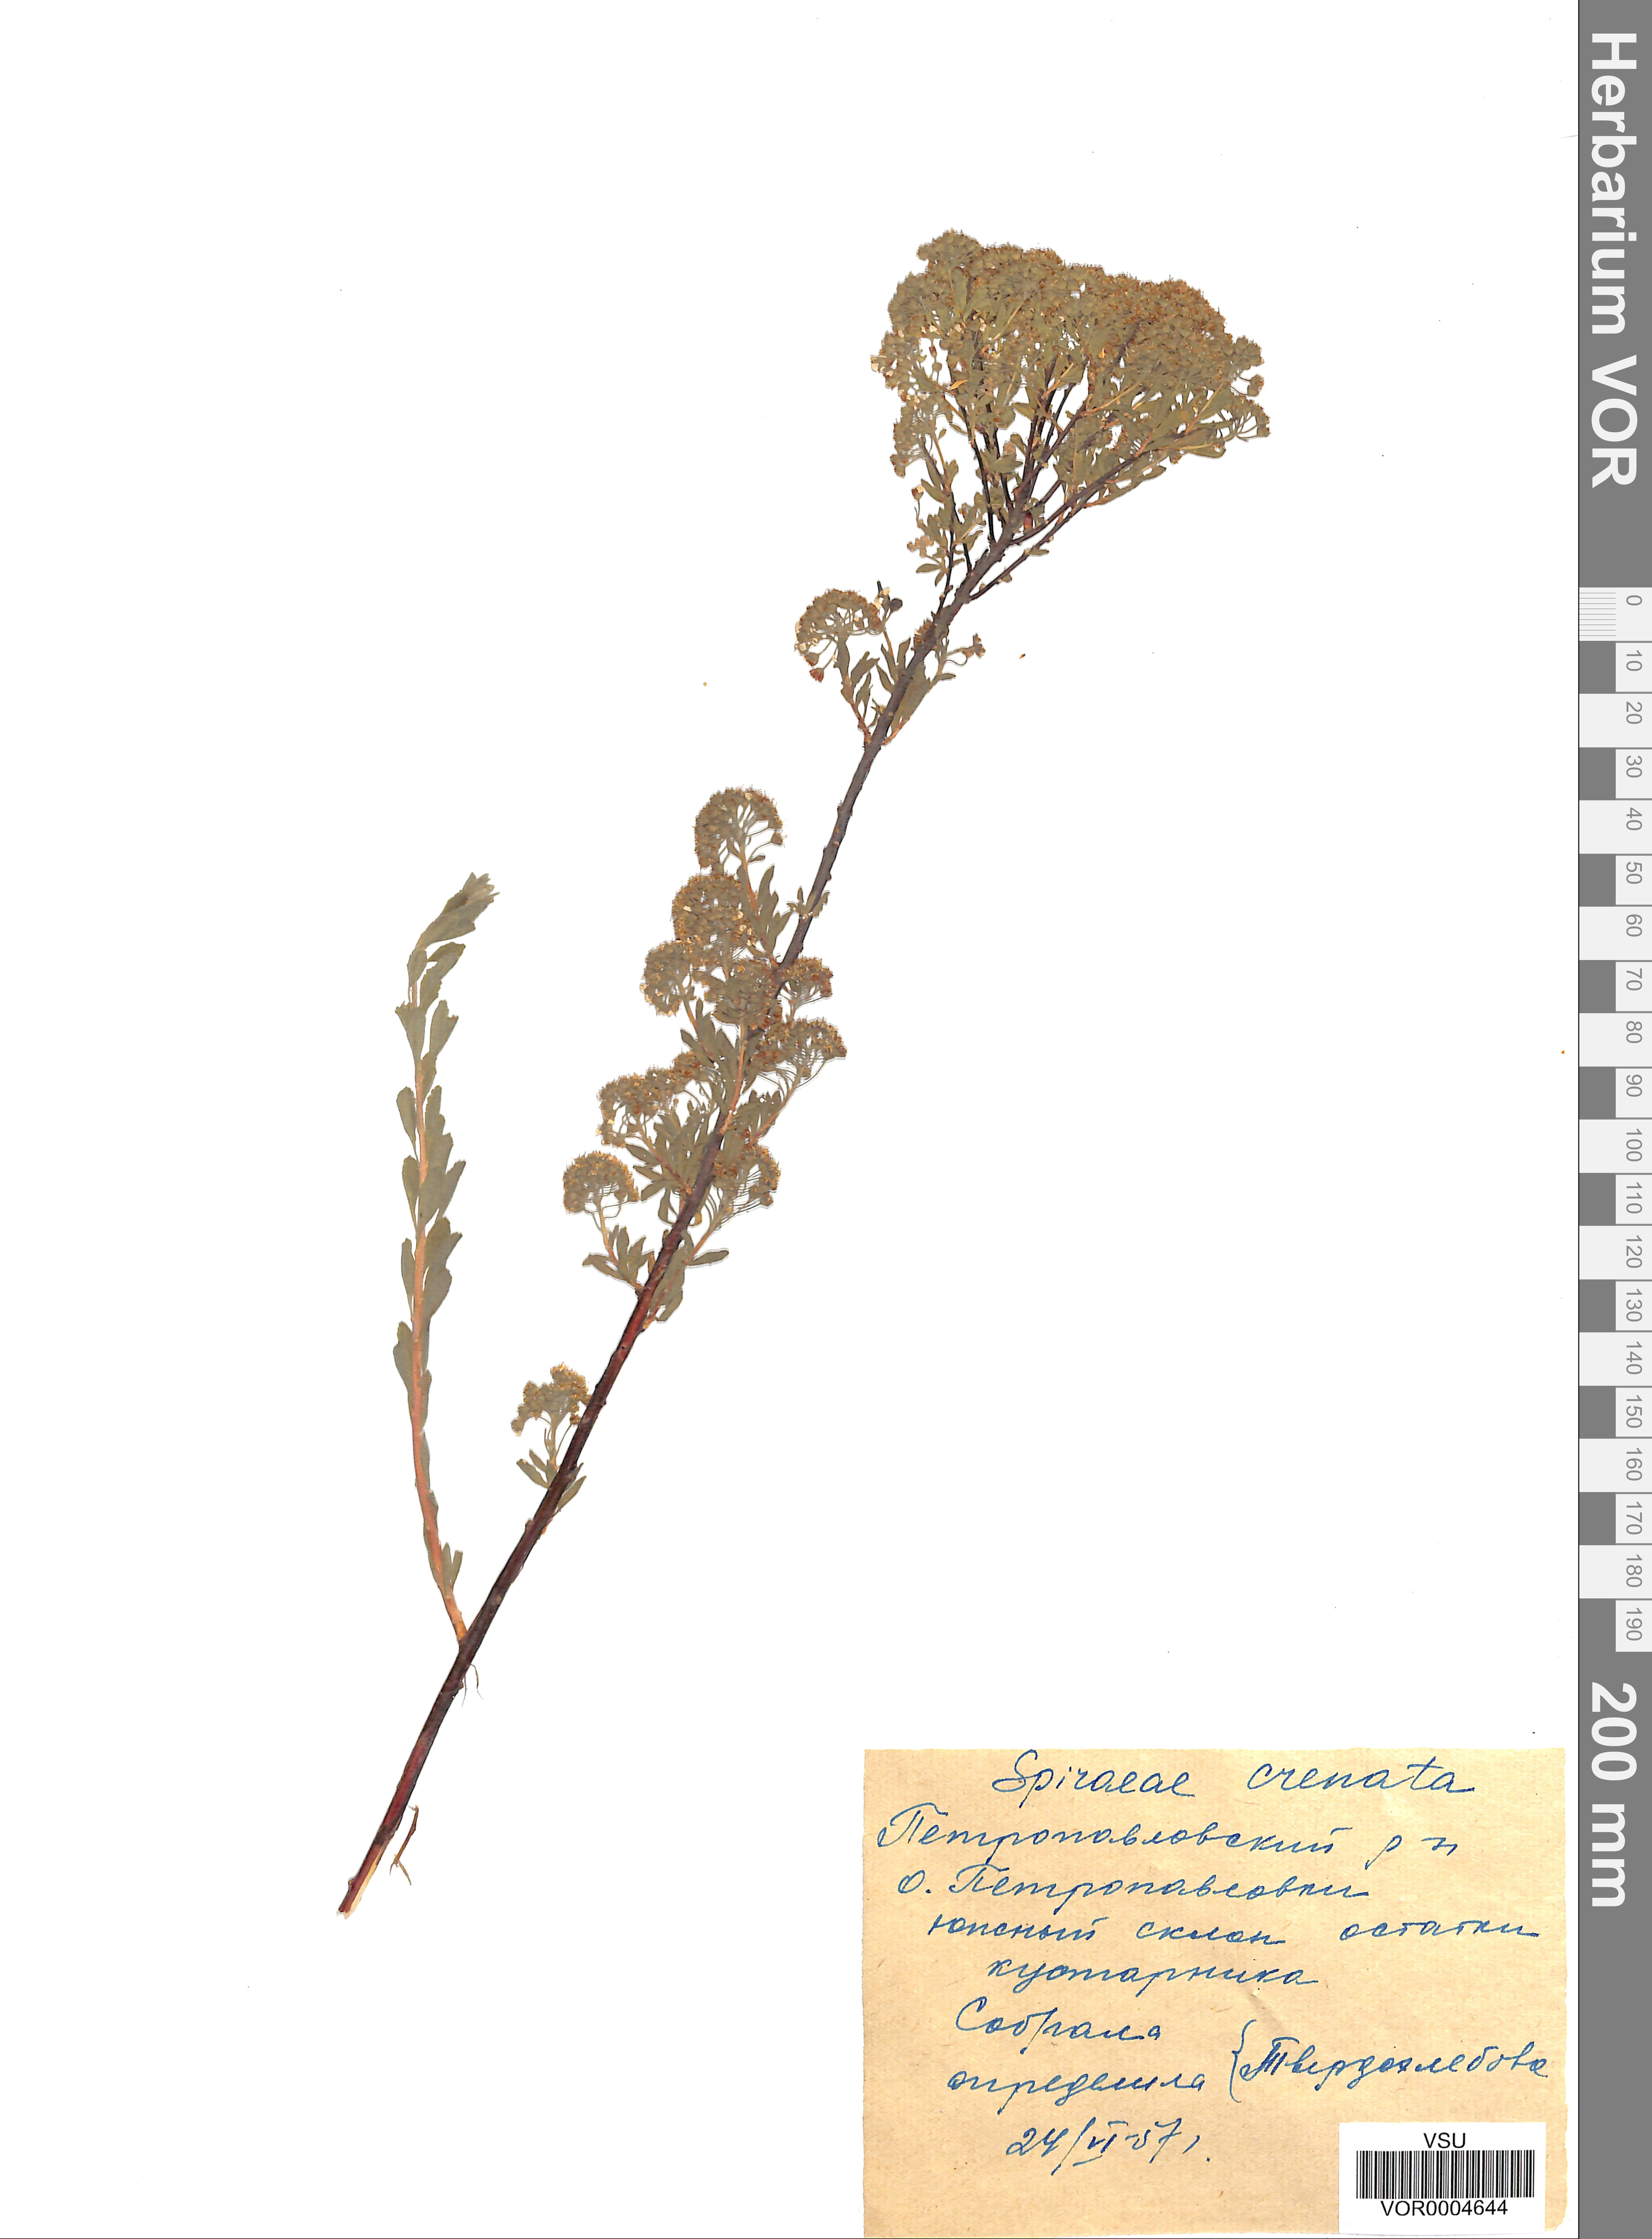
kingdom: Plantae
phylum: Tracheophyta
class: Magnoliopsida
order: Rosales
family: Rosaceae
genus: Spiraea
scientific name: Spiraea crenata
